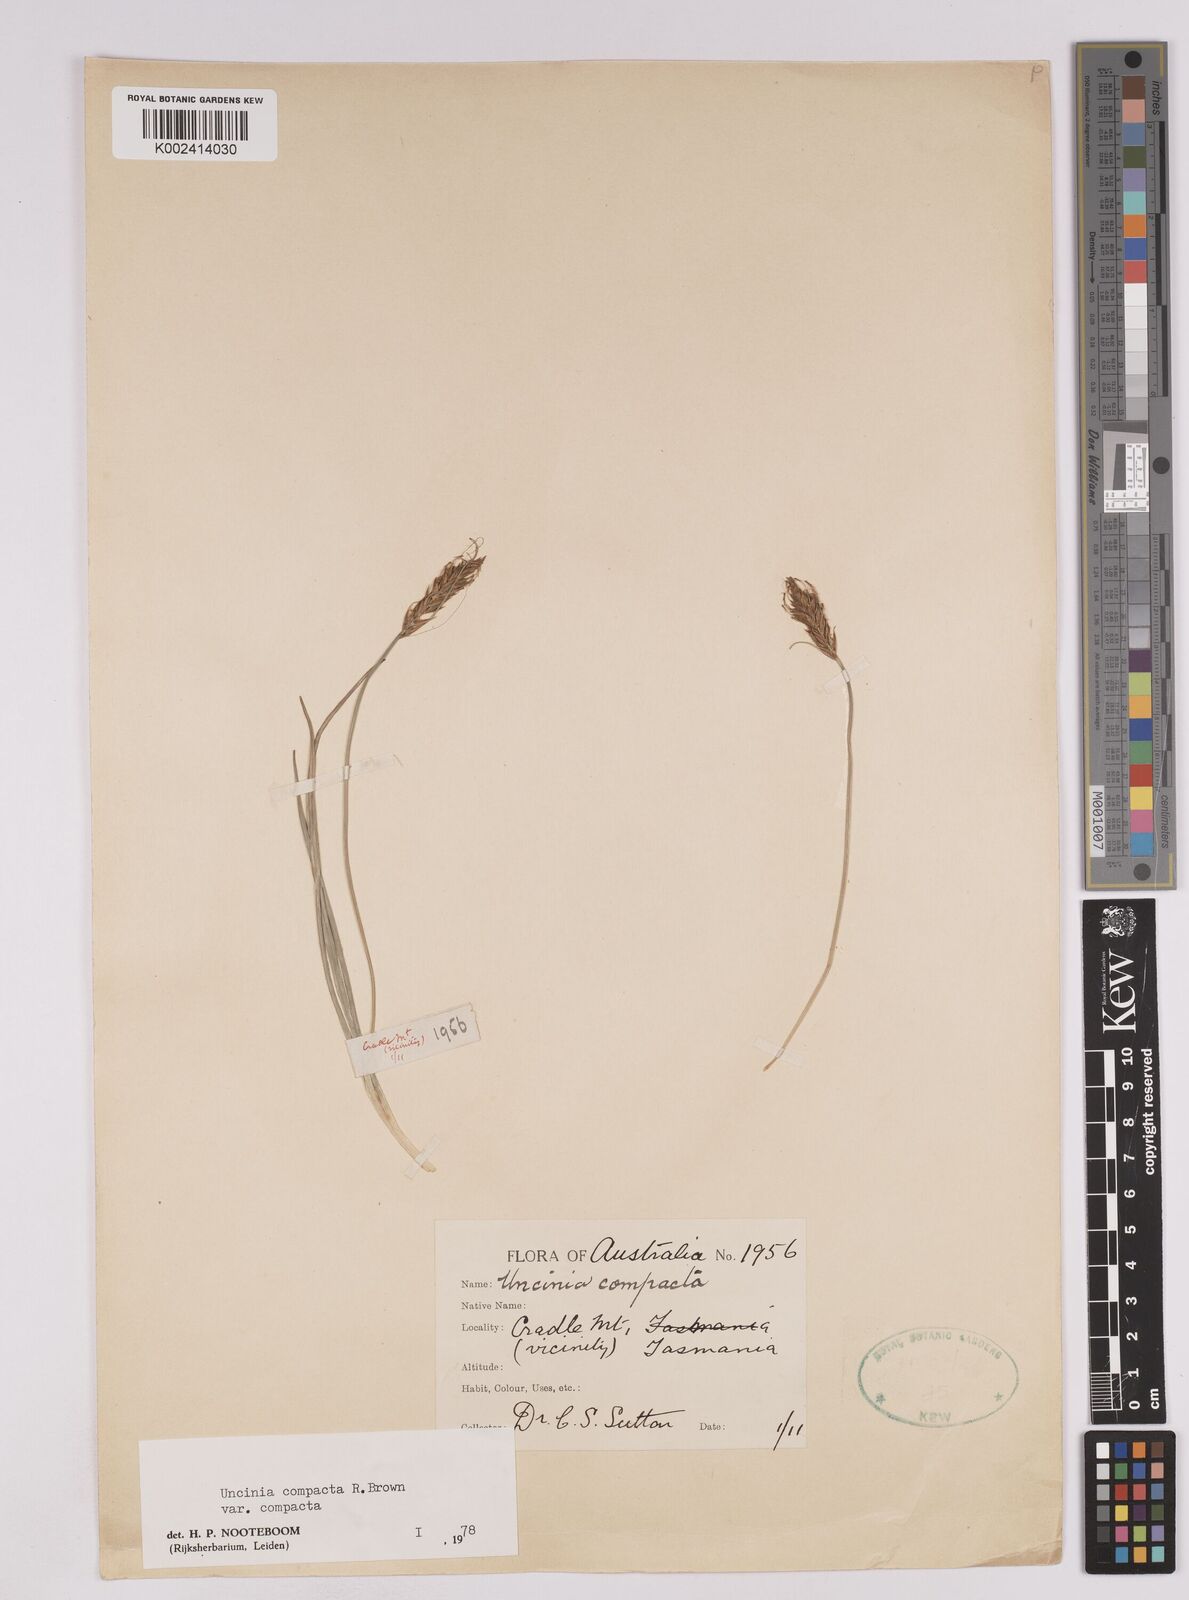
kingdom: Plantae
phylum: Tracheophyta
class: Liliopsida
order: Poales
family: Cyperaceae
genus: Carex
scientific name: Carex austrocompacta
